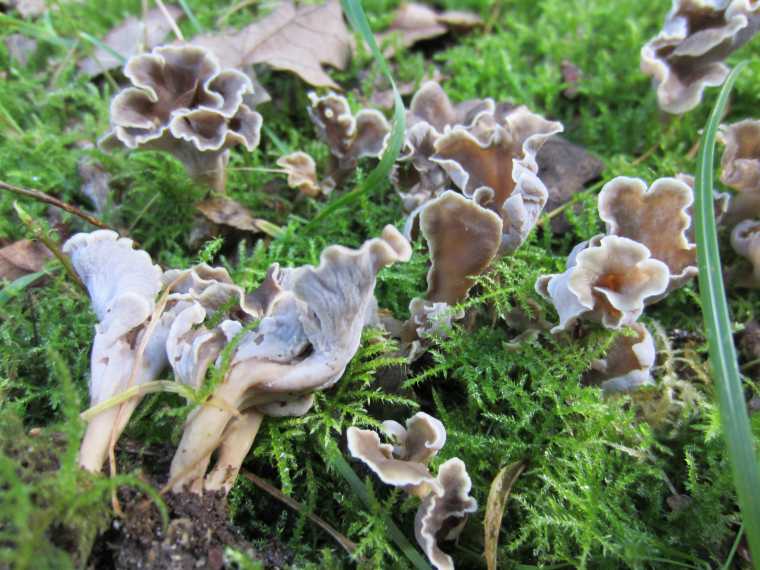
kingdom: Fungi
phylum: Basidiomycota
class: Agaricomycetes
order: Cantharellales
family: Hydnaceae
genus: Craterellus
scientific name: Craterellus undulatus
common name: liden kantarel
